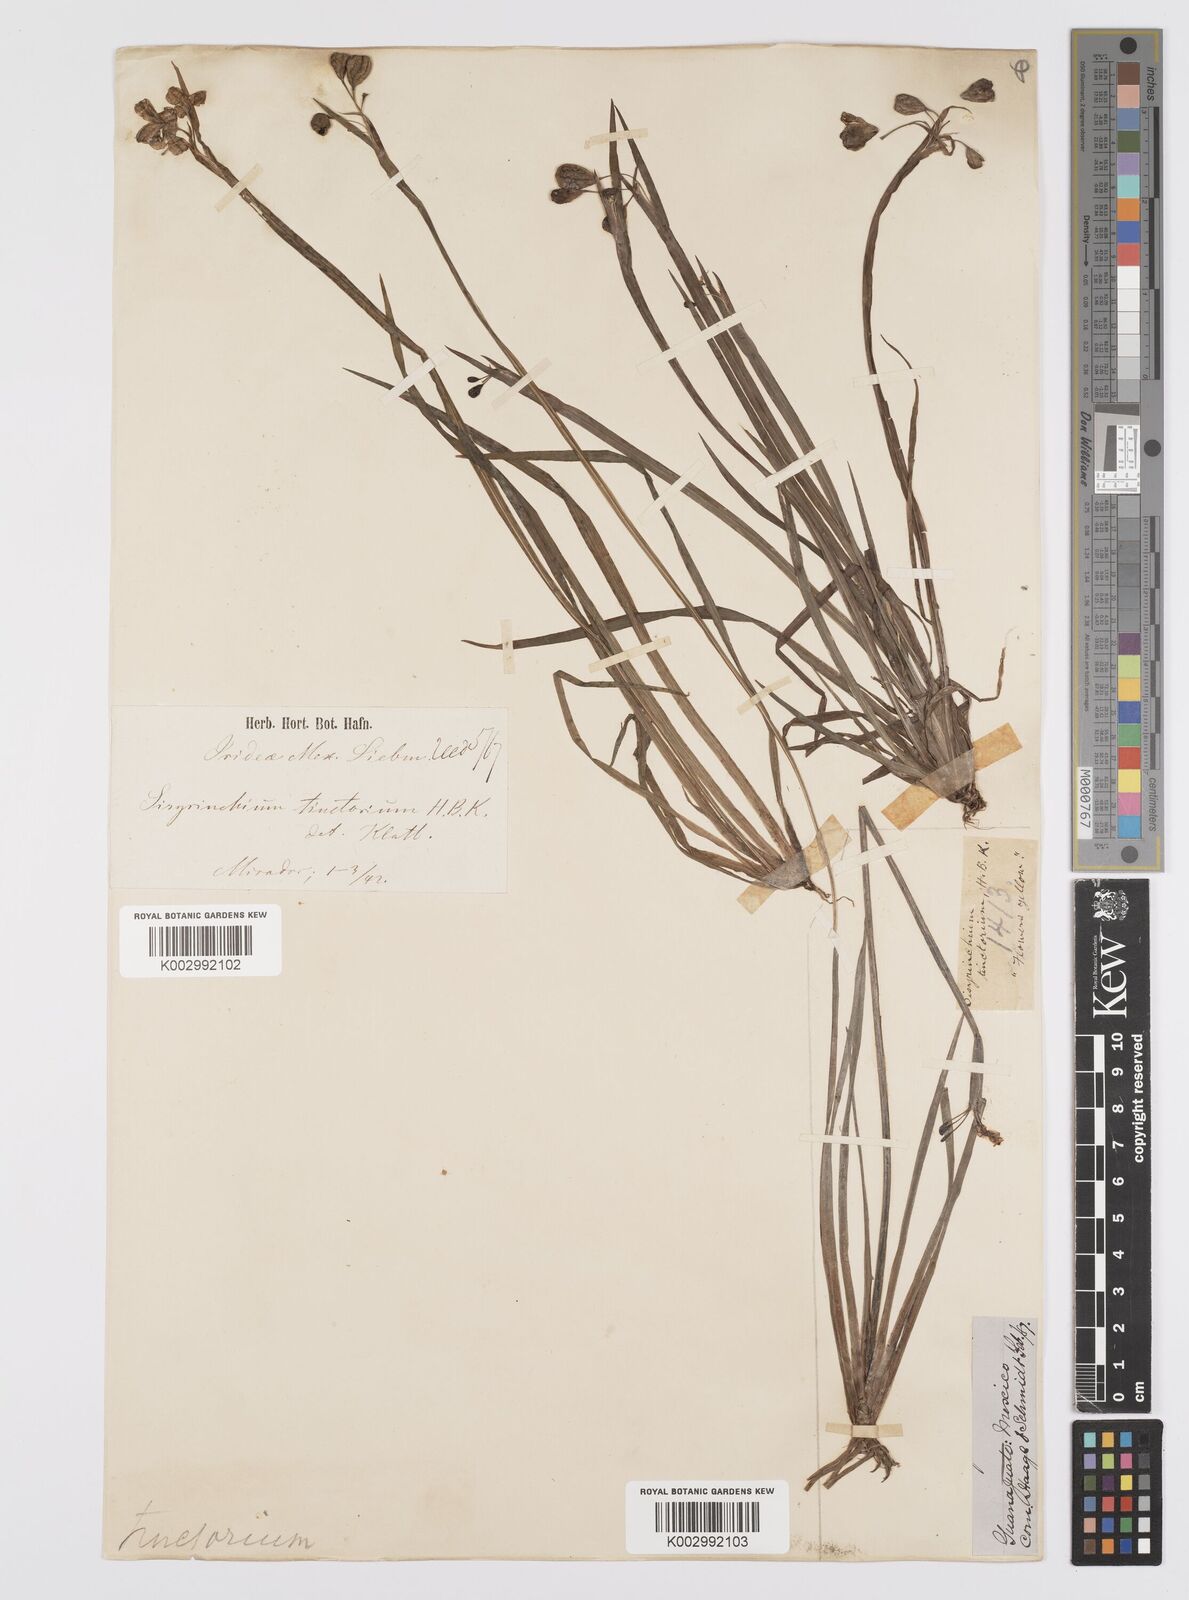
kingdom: Plantae
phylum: Tracheophyta
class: Liliopsida
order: Asparagales
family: Iridaceae
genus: Sisyrinchium
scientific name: Sisyrinchium tinctorium
